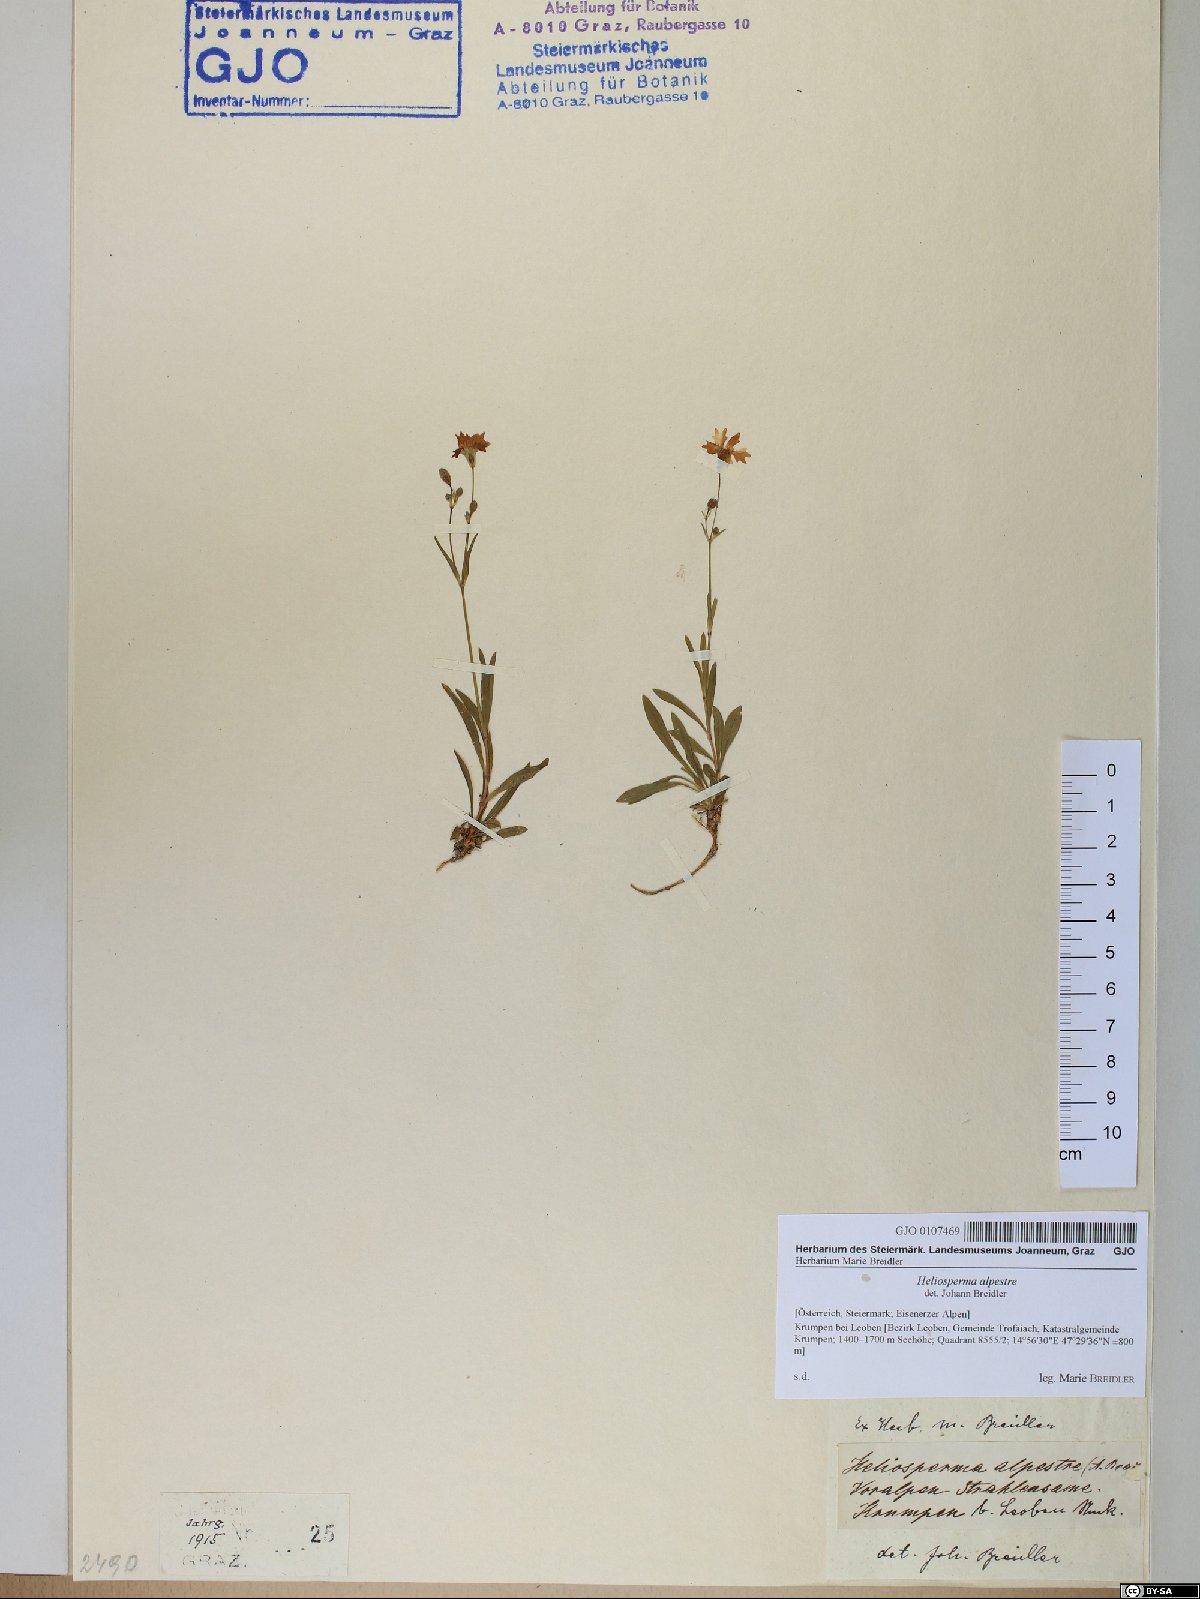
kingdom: Plantae
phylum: Tracheophyta
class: Magnoliopsida
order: Caryophyllales
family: Caryophyllaceae
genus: Heliosperma
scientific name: Heliosperma alpestre
